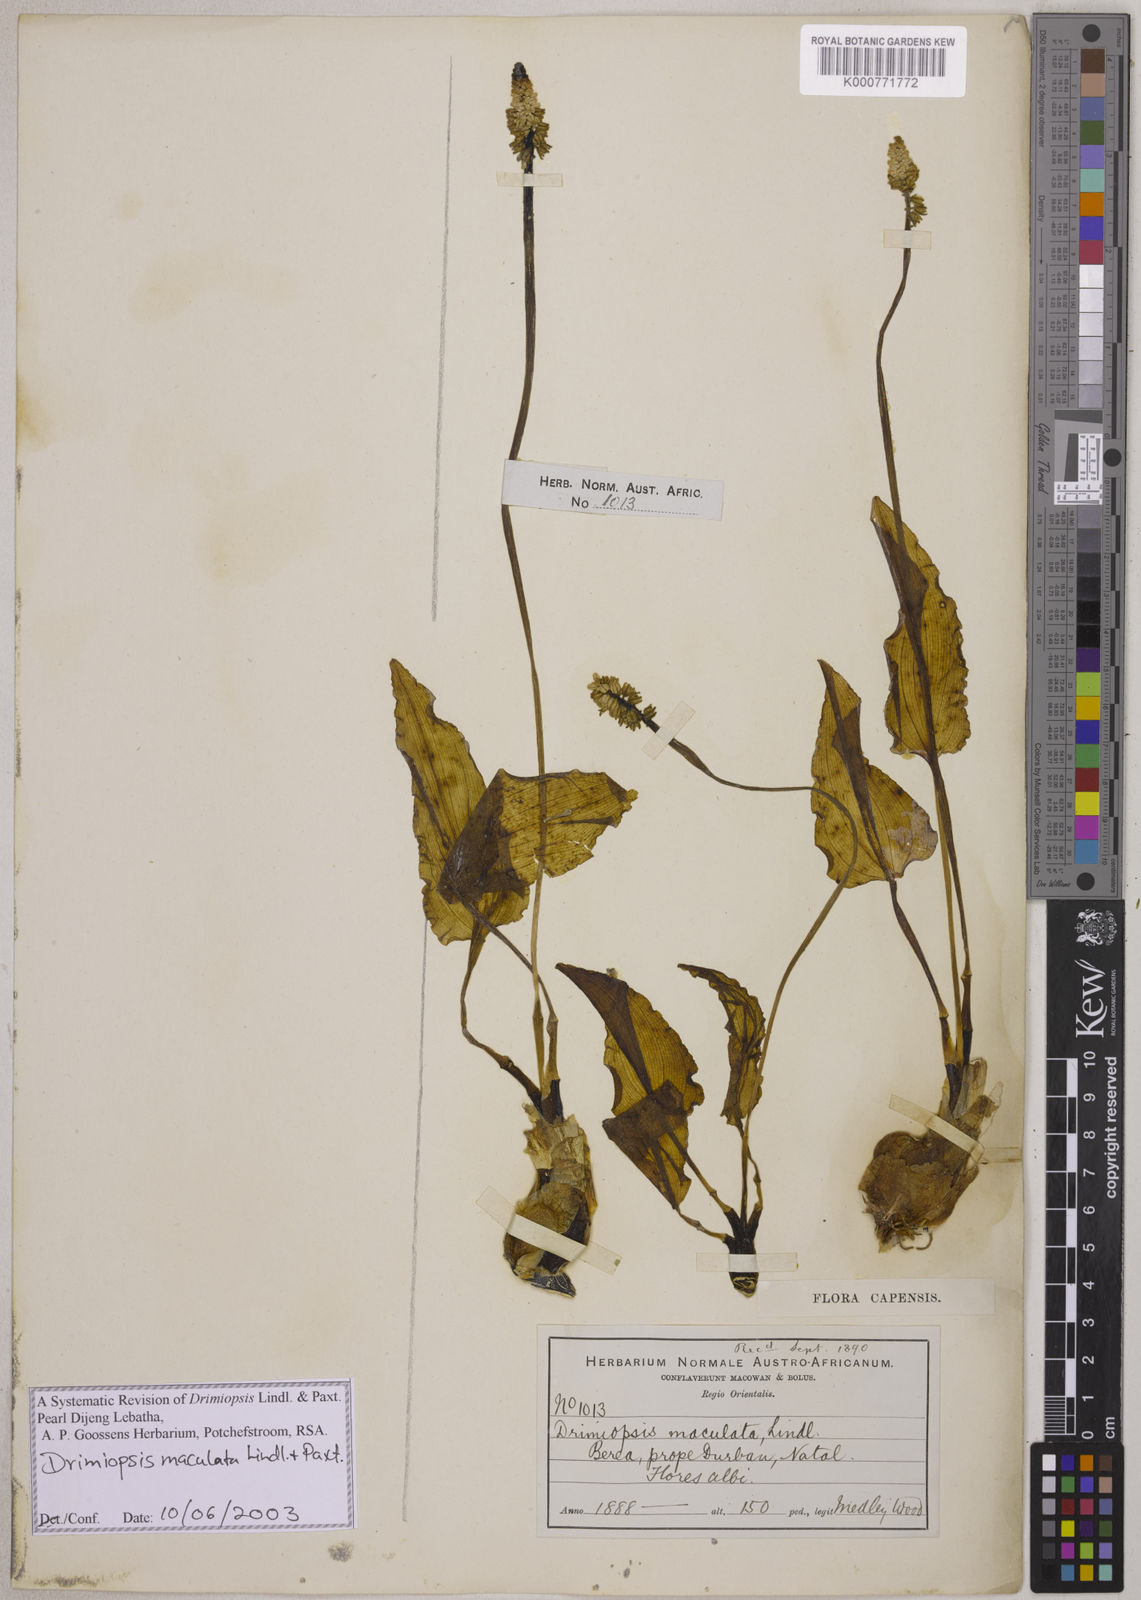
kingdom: Plantae
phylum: Tracheophyta
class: Liliopsida
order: Asparagales
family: Asparagaceae
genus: Drimiopsis
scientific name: Drimiopsis maculata
